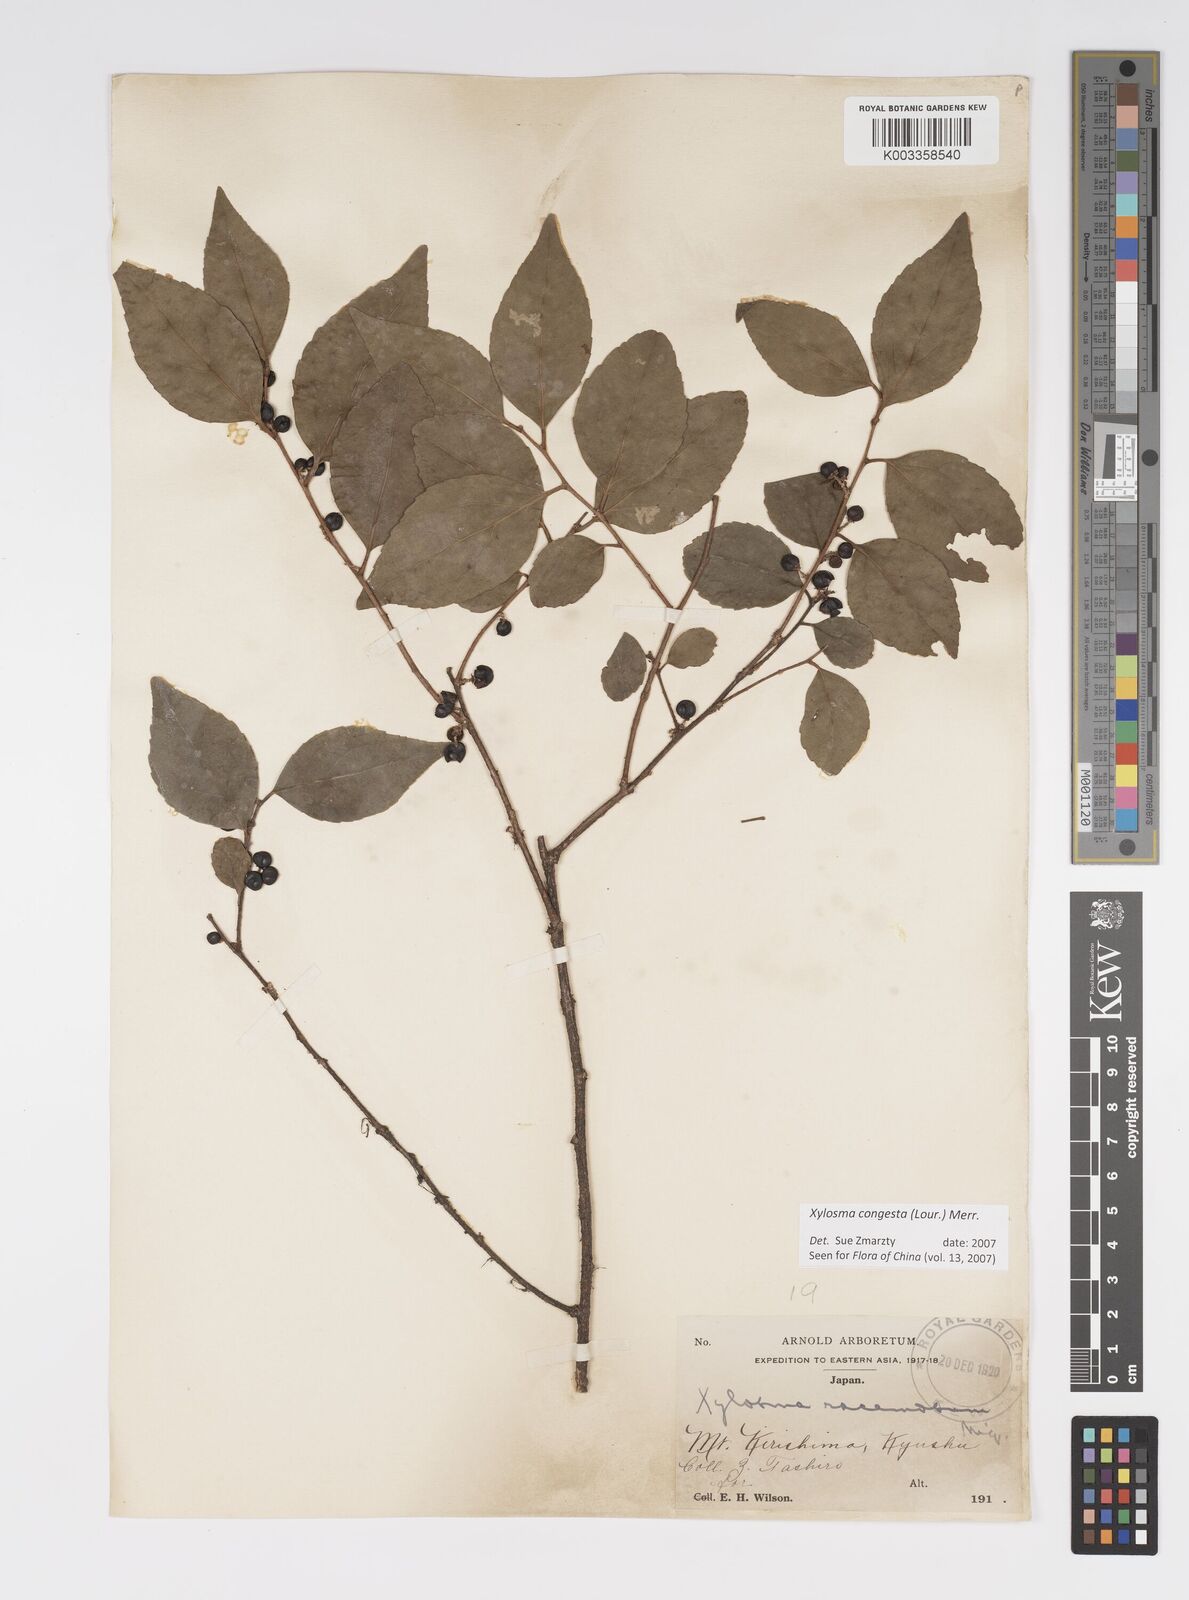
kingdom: Plantae
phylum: Tracheophyta
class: Magnoliopsida
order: Malpighiales
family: Salicaceae
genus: Xylosma
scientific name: Xylosma racemosum
